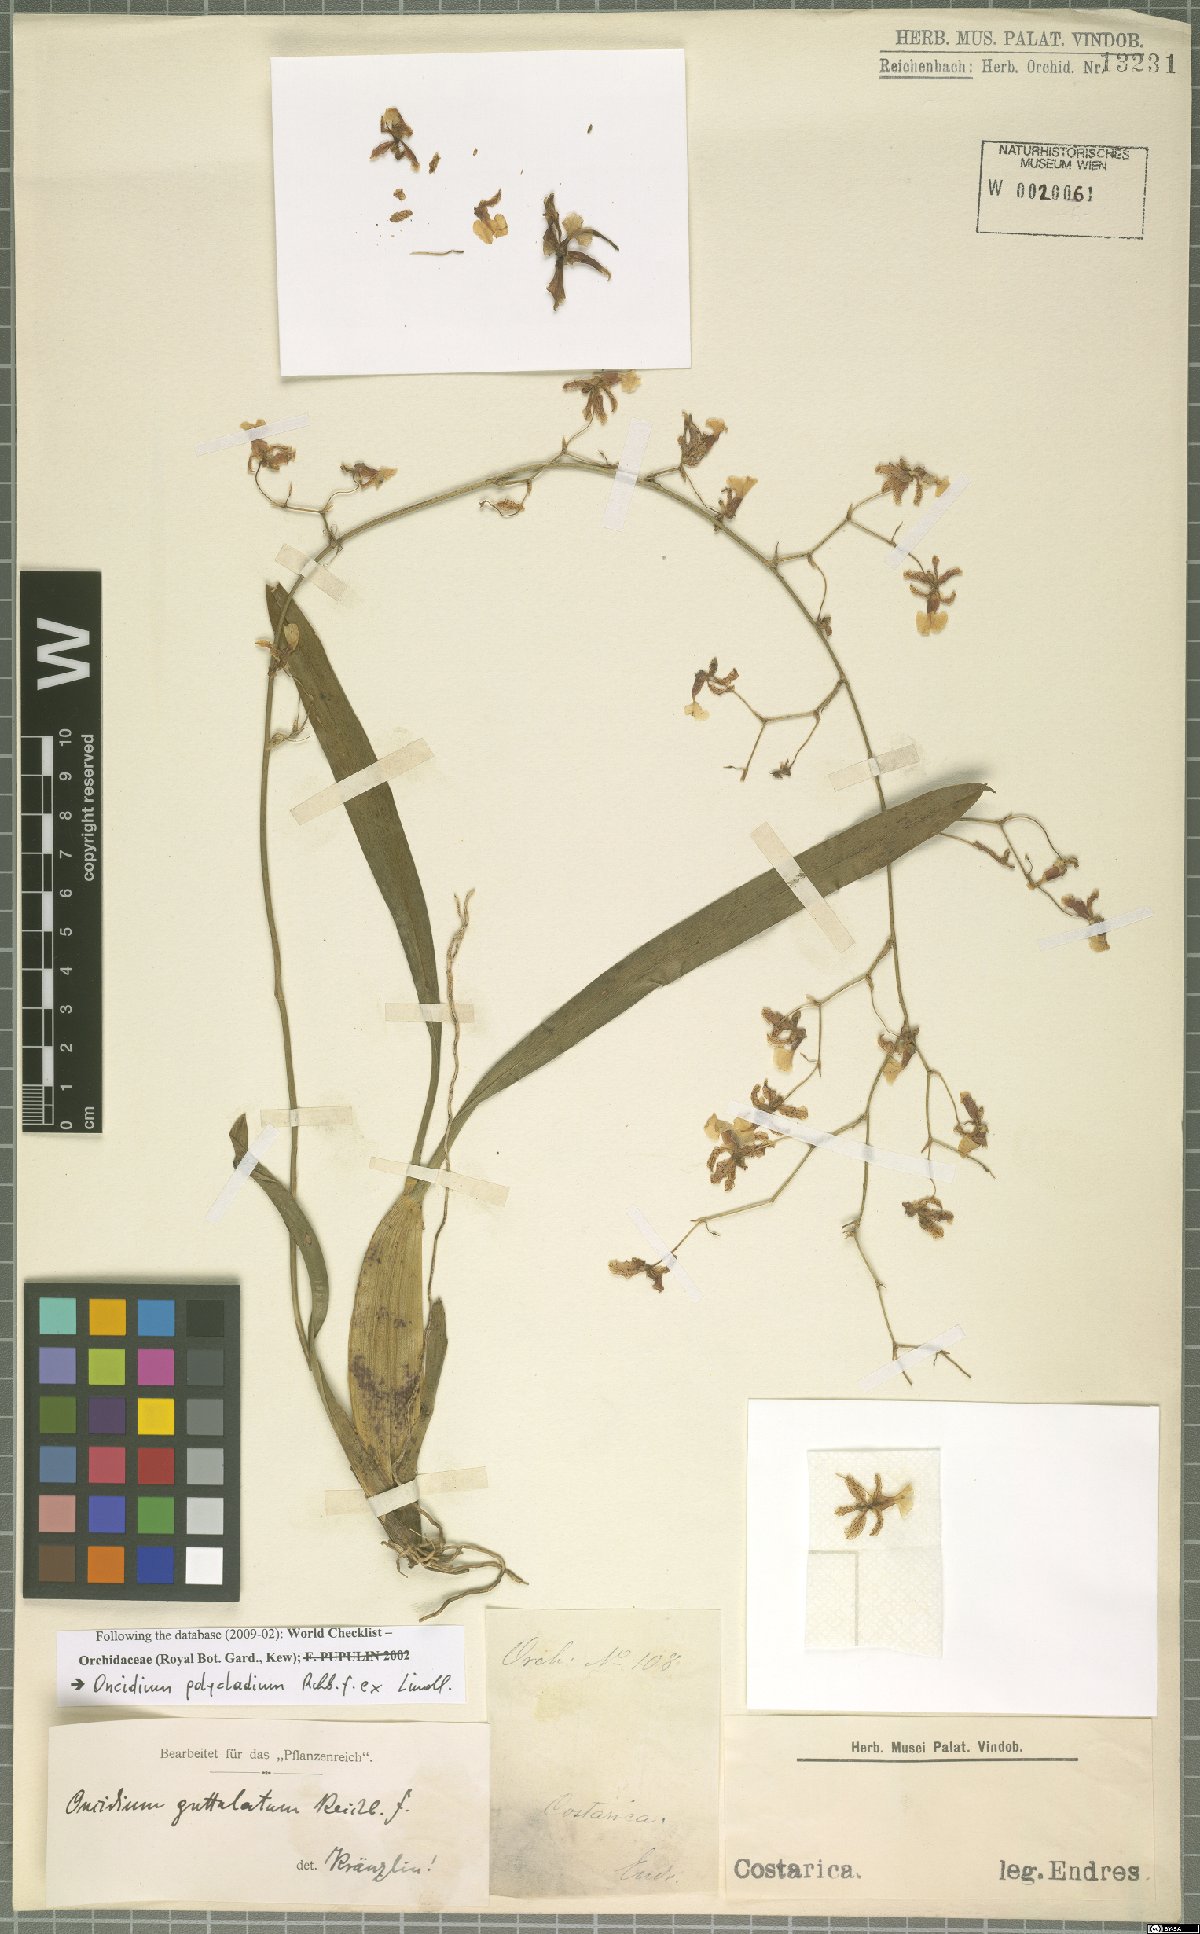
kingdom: Plantae
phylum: Tracheophyta
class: Liliopsida
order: Asparagales
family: Orchidaceae
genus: Oncidium
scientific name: Oncidium polycladium
